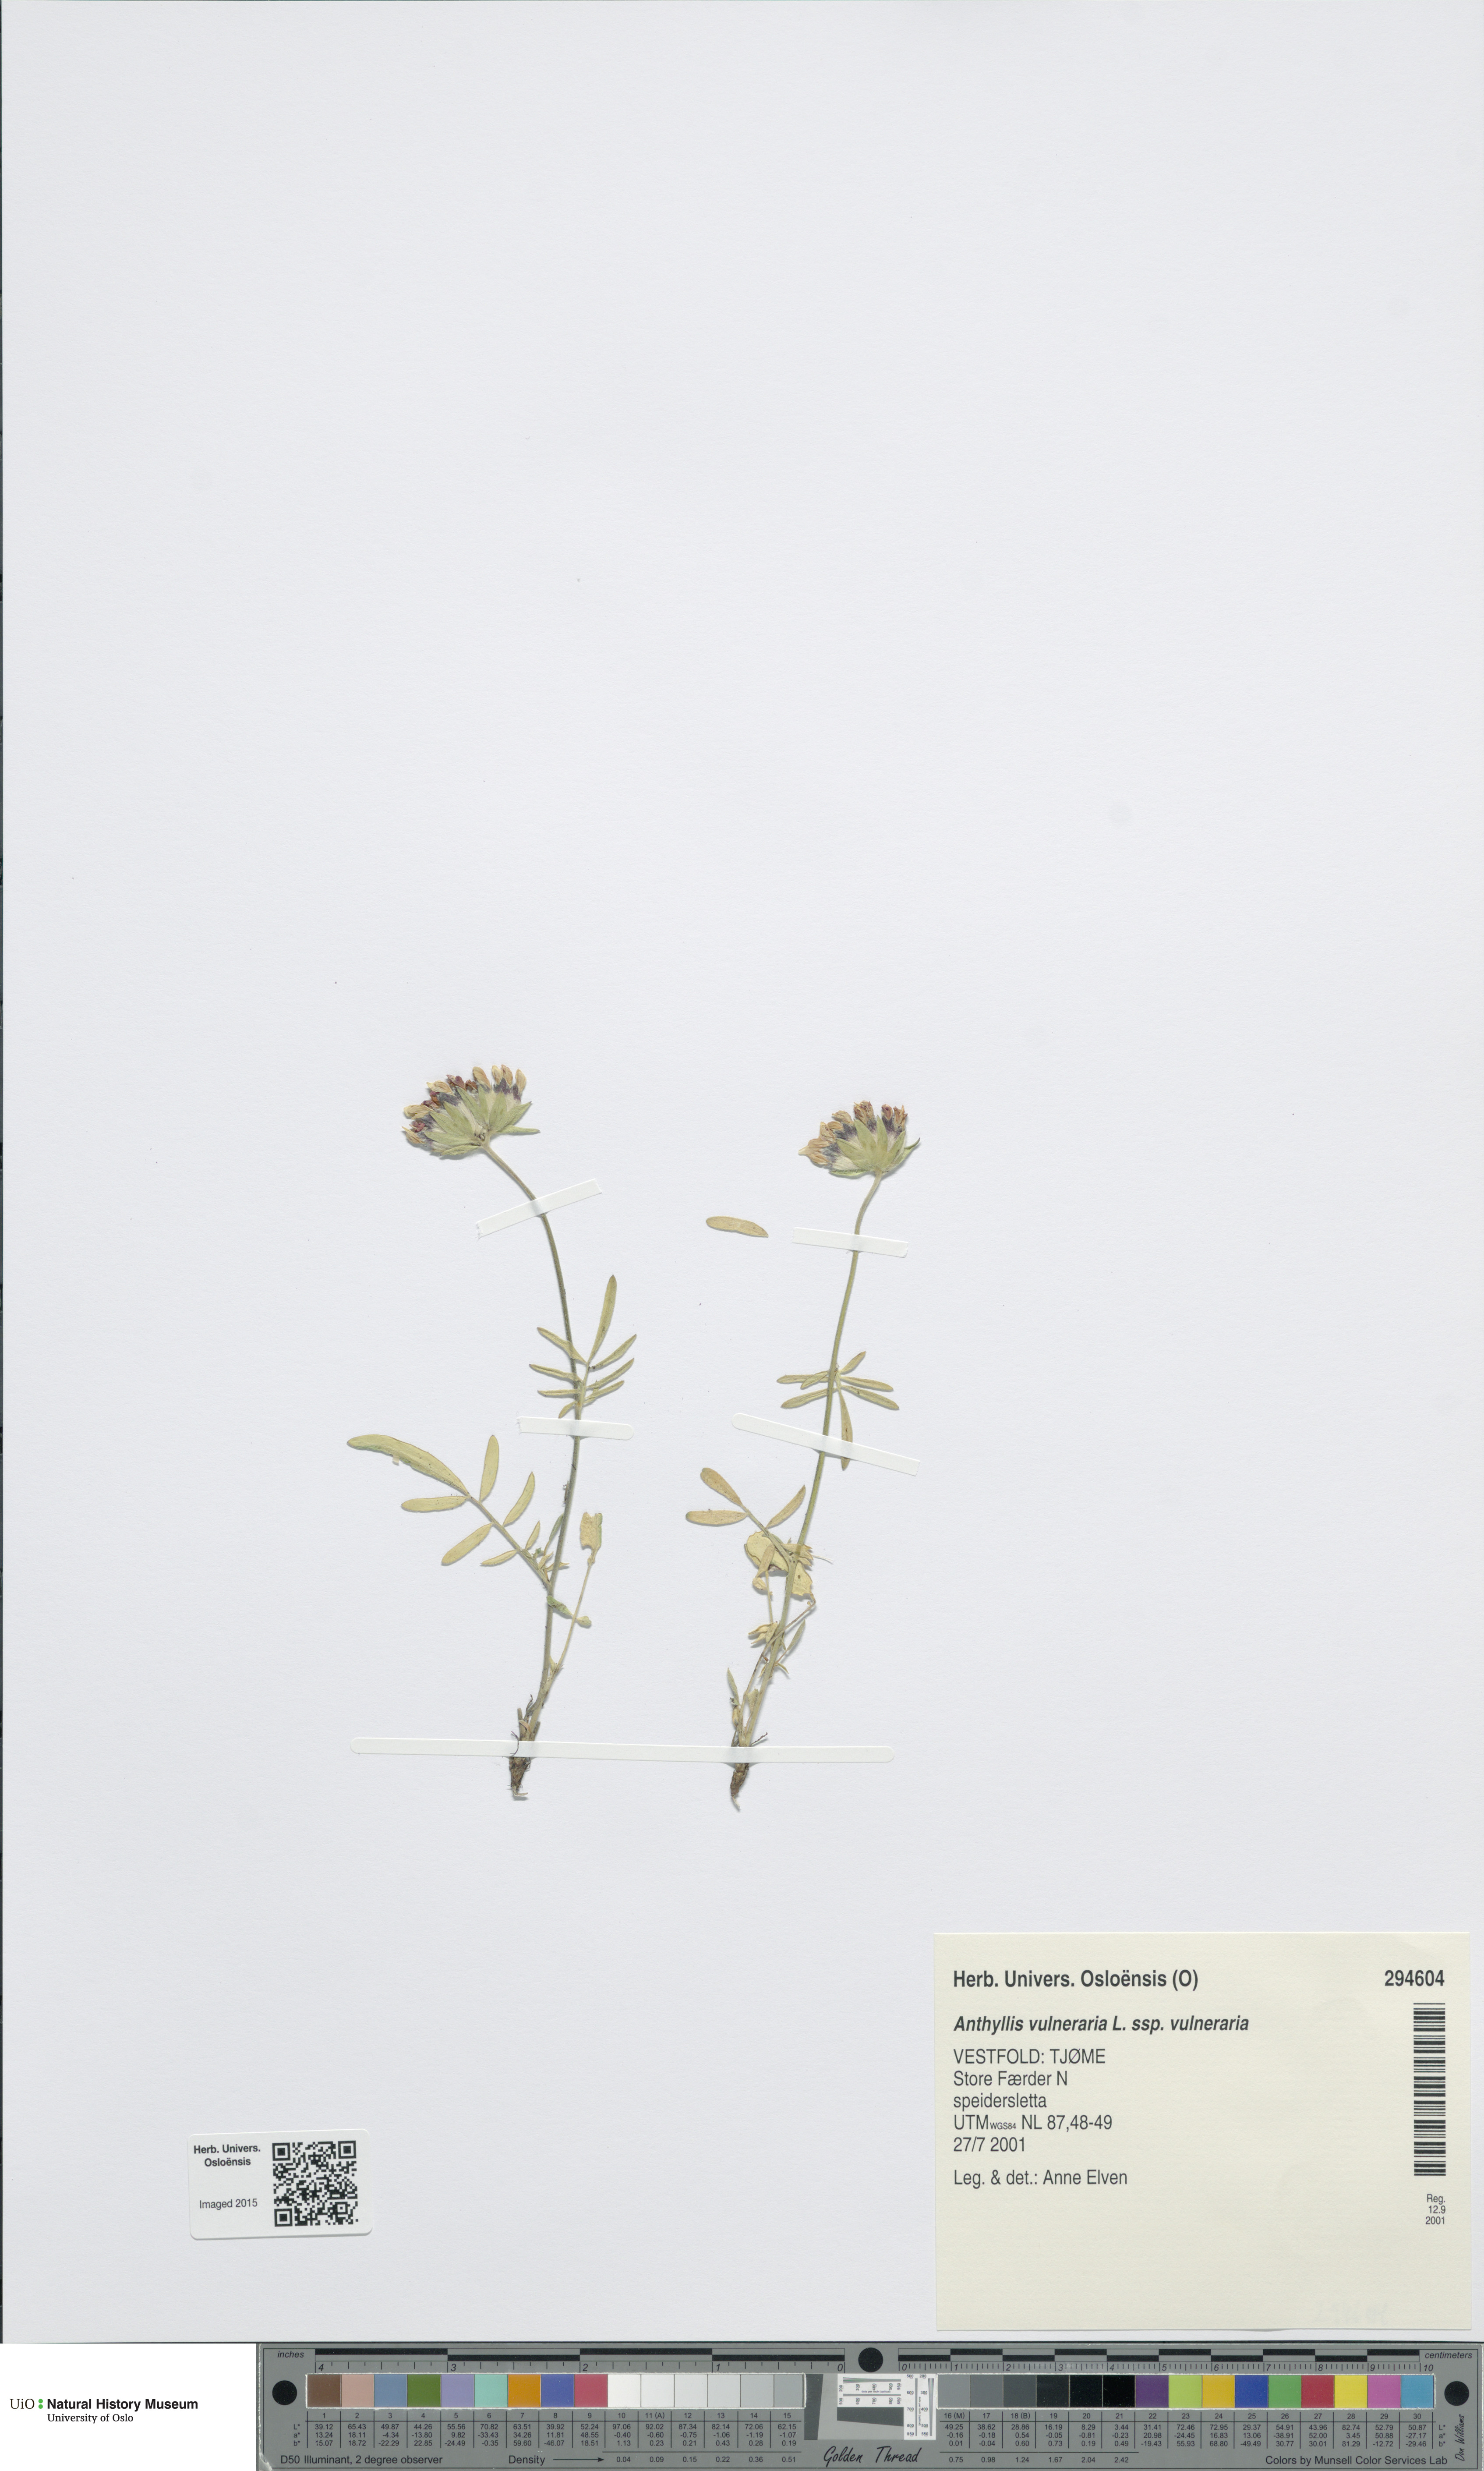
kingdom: Plantae
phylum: Tracheophyta
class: Magnoliopsida
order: Fabales
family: Fabaceae
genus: Anthyllis
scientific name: Anthyllis vulneraria
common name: Kidney vetch
